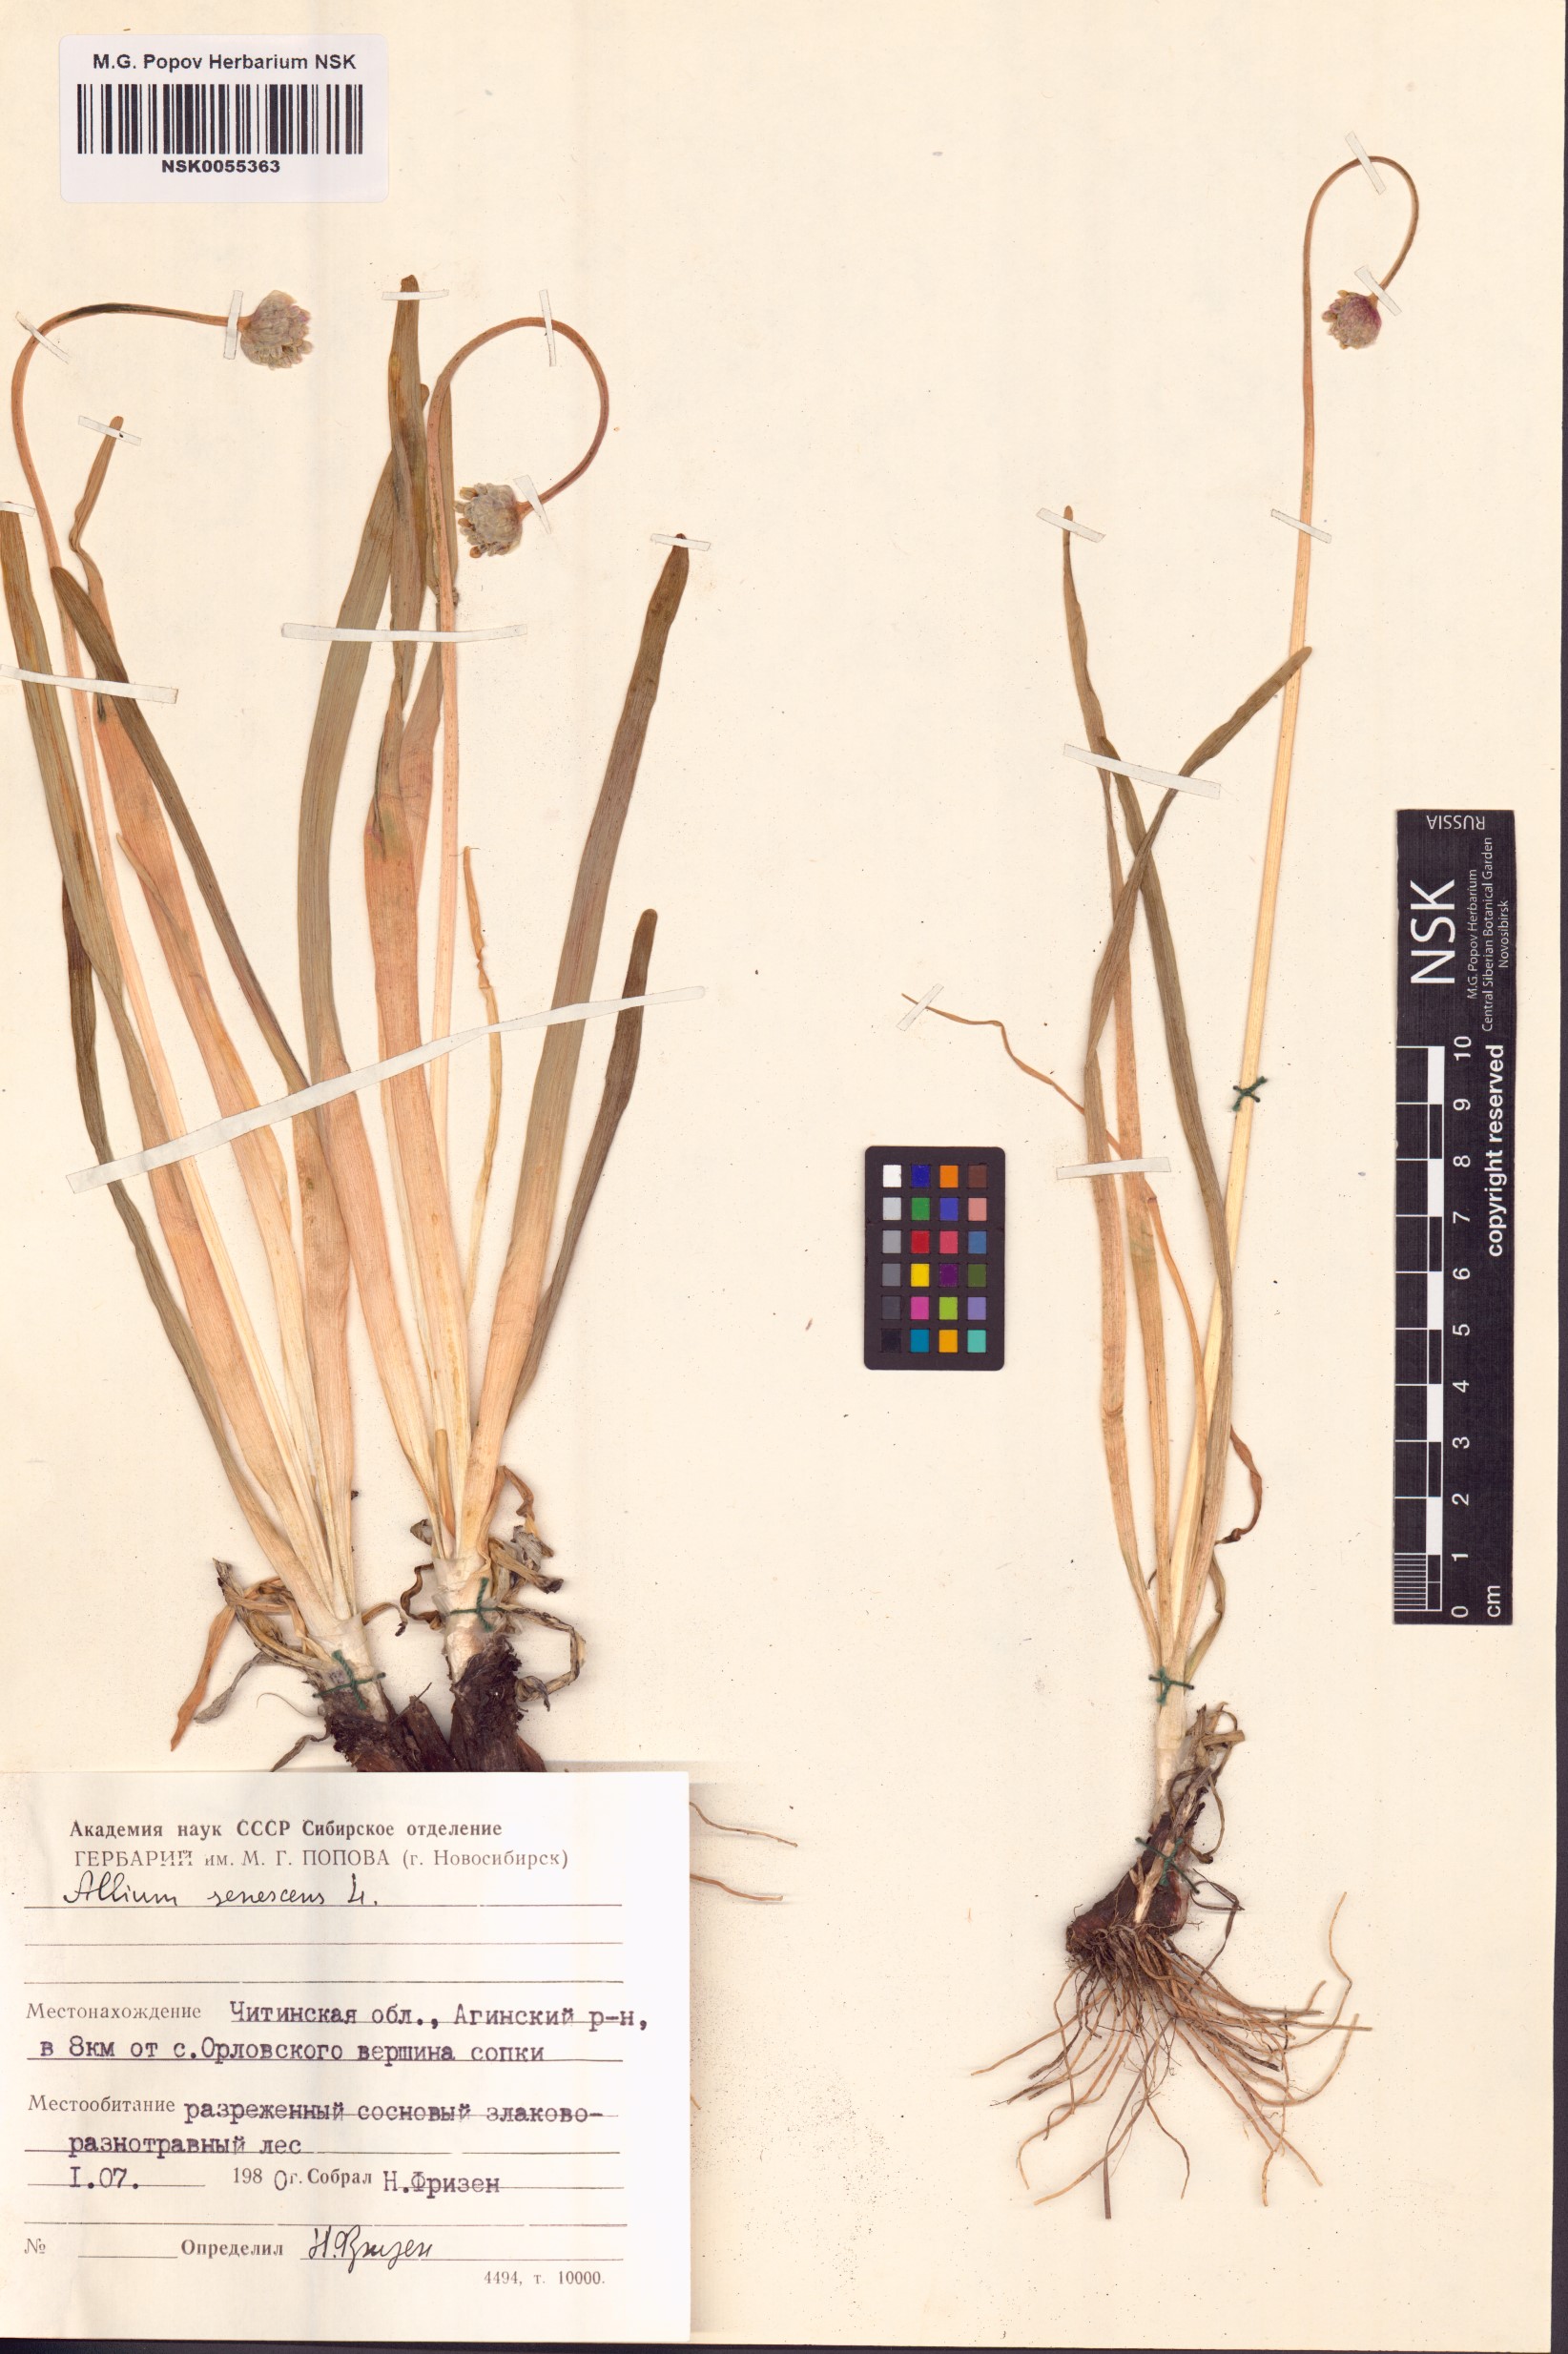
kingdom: Plantae
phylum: Tracheophyta
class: Liliopsida
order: Asparagales
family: Amaryllidaceae
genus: Allium
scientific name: Allium senescens
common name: German garlic
